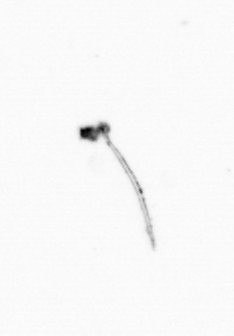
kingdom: Chromista
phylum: Ochrophyta
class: Bacillariophyceae
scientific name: Bacillariophyceae
